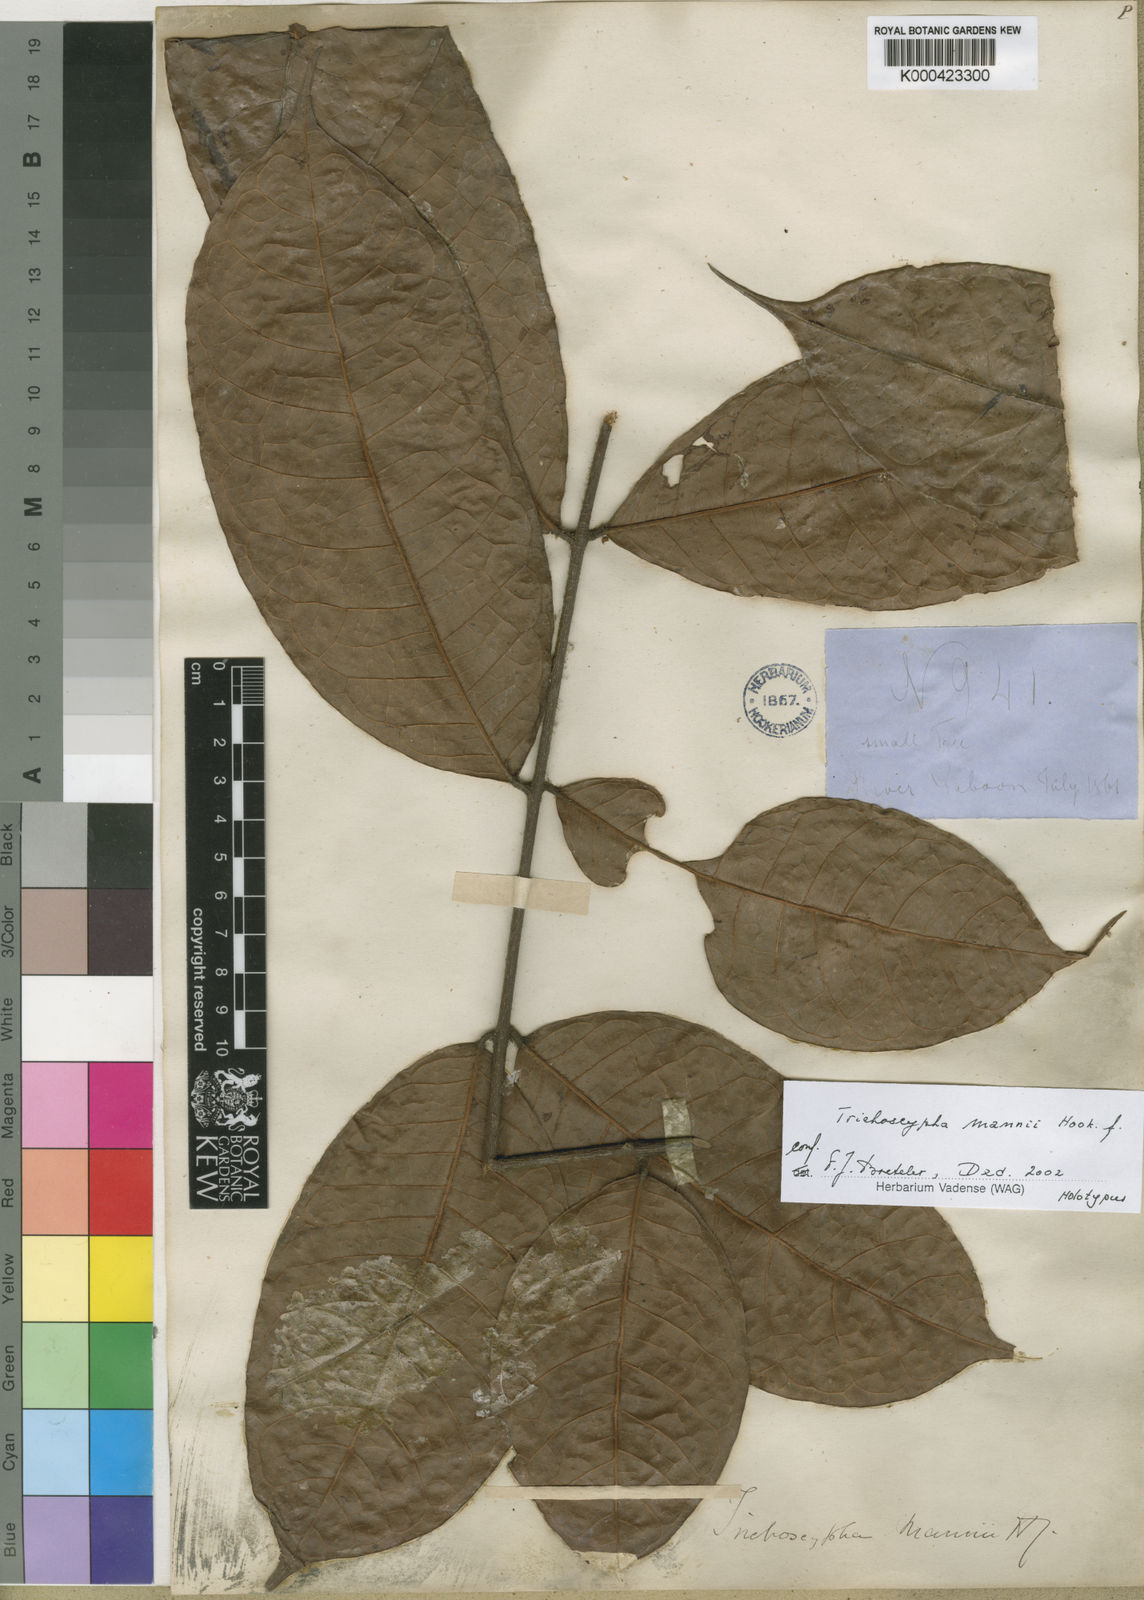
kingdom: Plantae
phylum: Tracheophyta
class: Magnoliopsida
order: Sapindales
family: Anacardiaceae
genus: Trichoscypha
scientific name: Trichoscypha mannii
